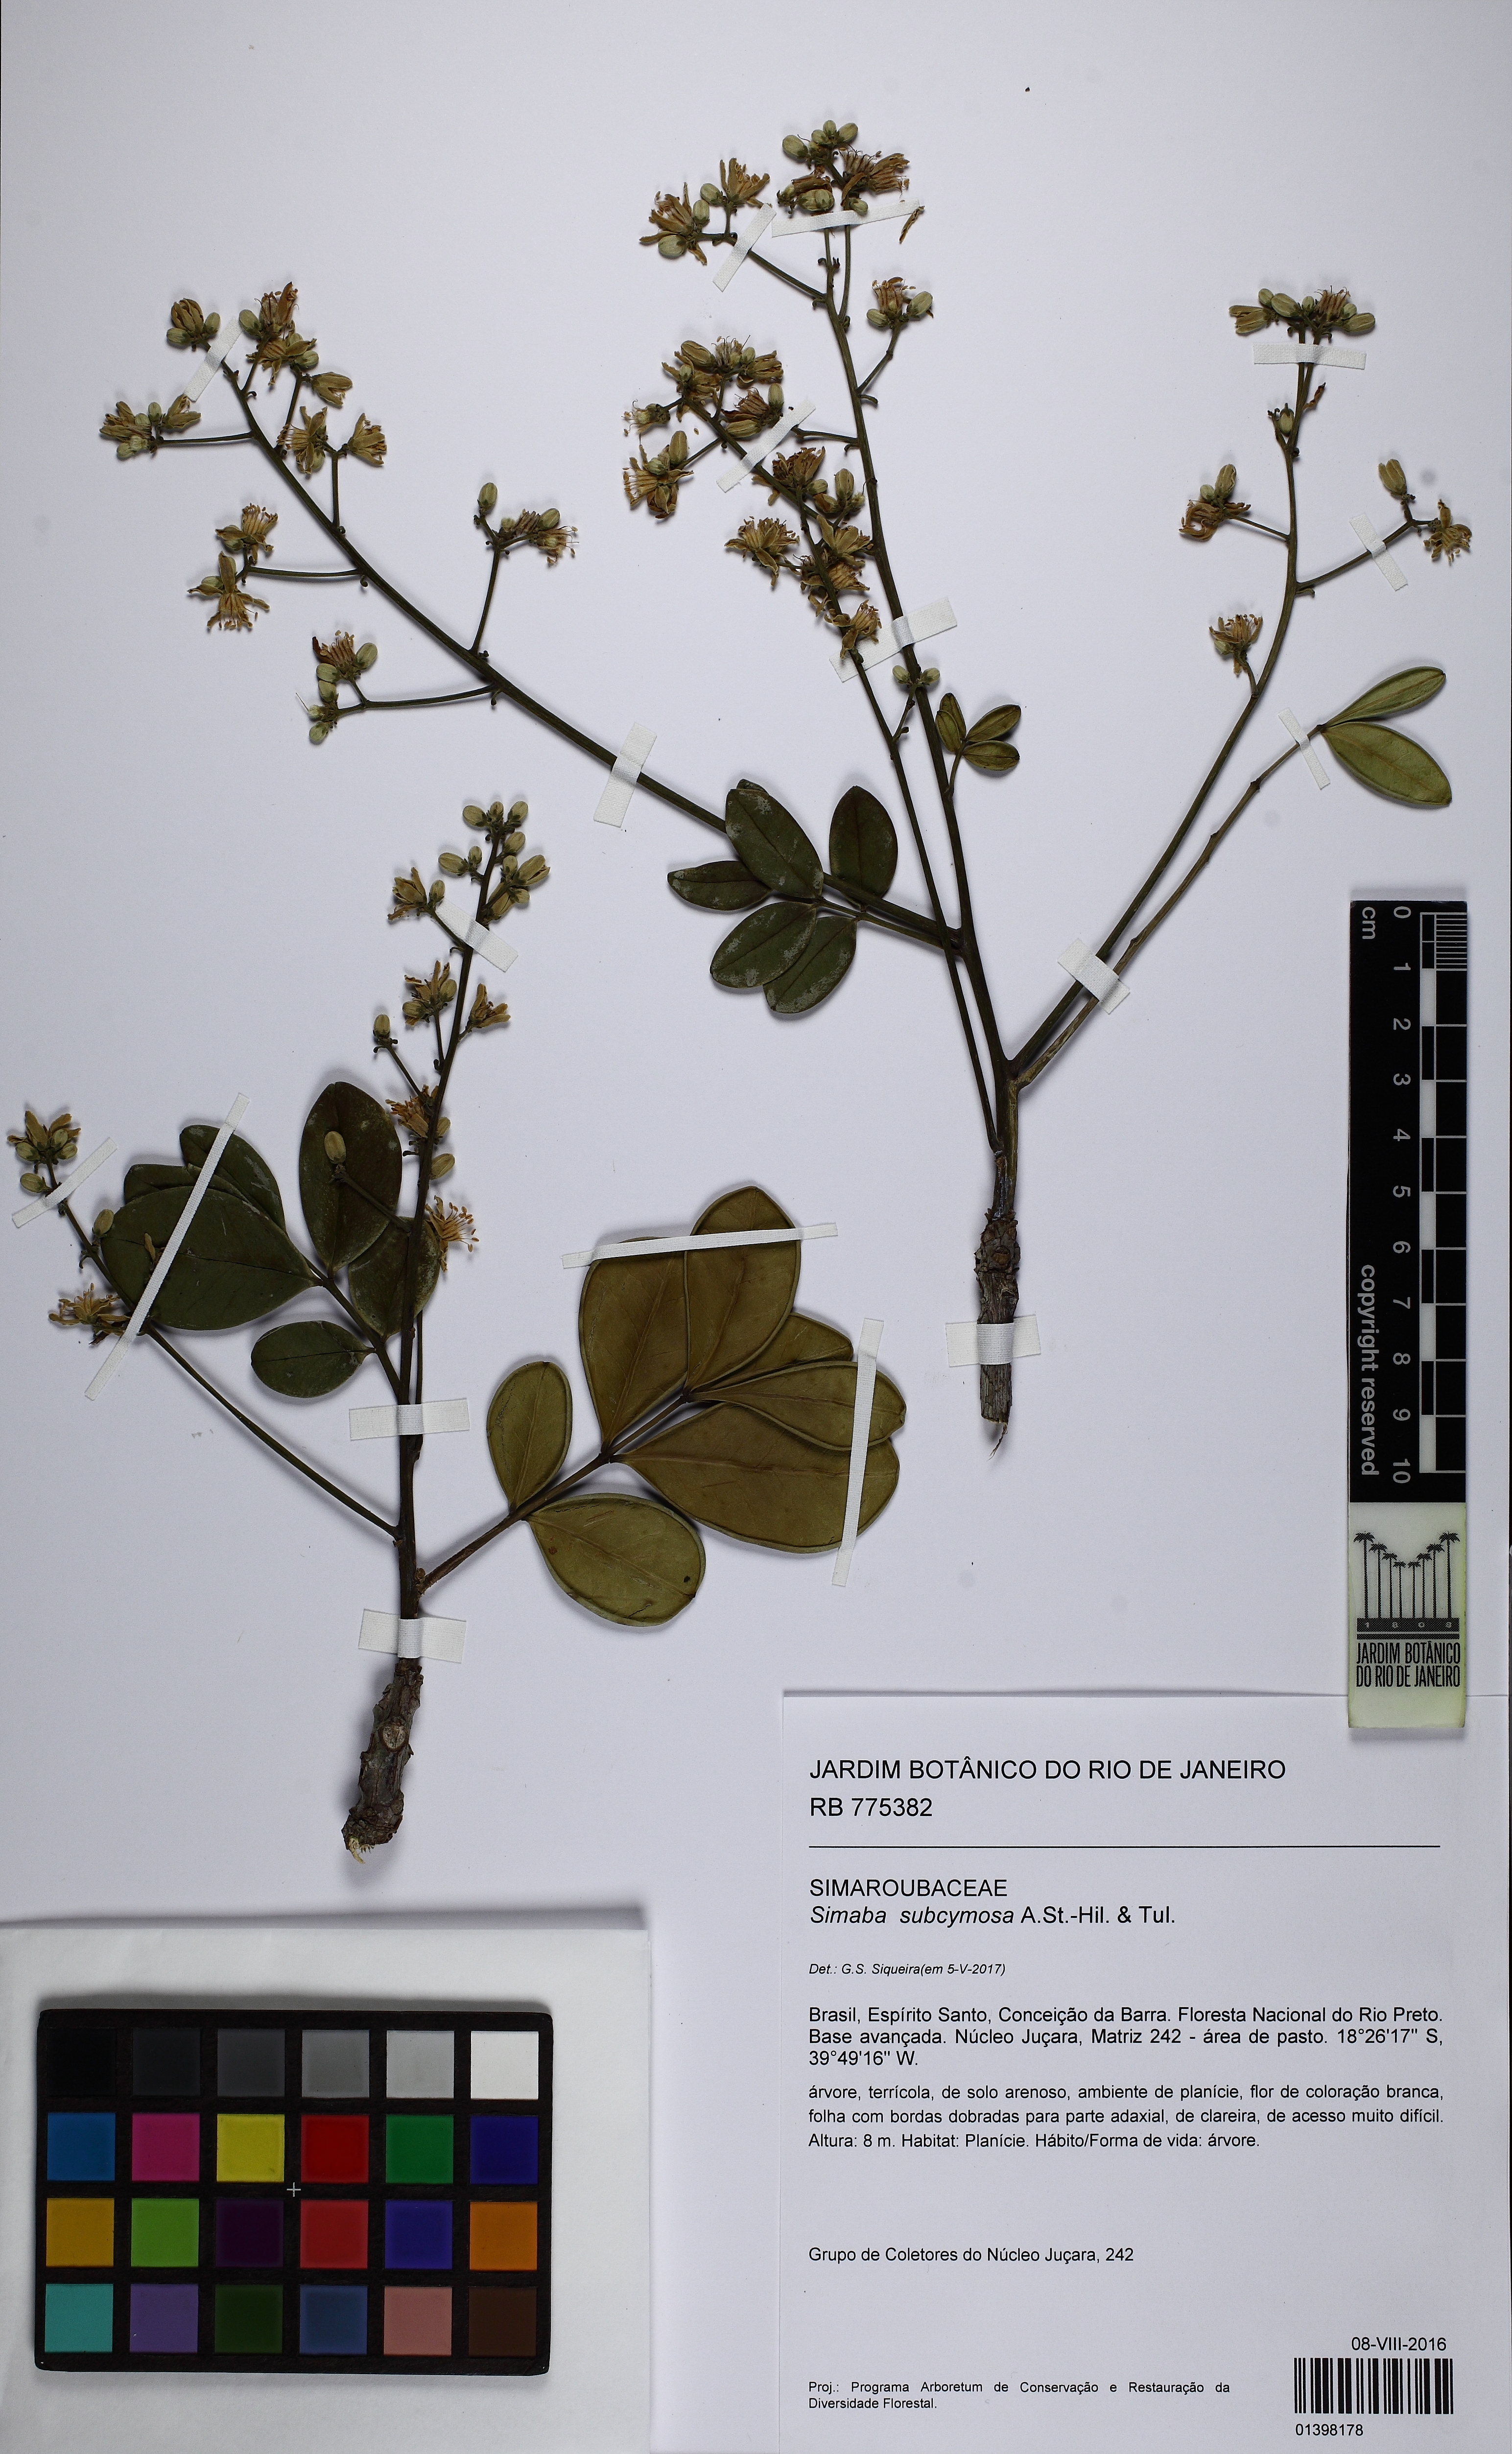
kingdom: Plantae
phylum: Tracheophyta
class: Magnoliopsida
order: Sapindales
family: Simaroubaceae
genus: Homalolepis
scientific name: Homalolepis subcymosa
